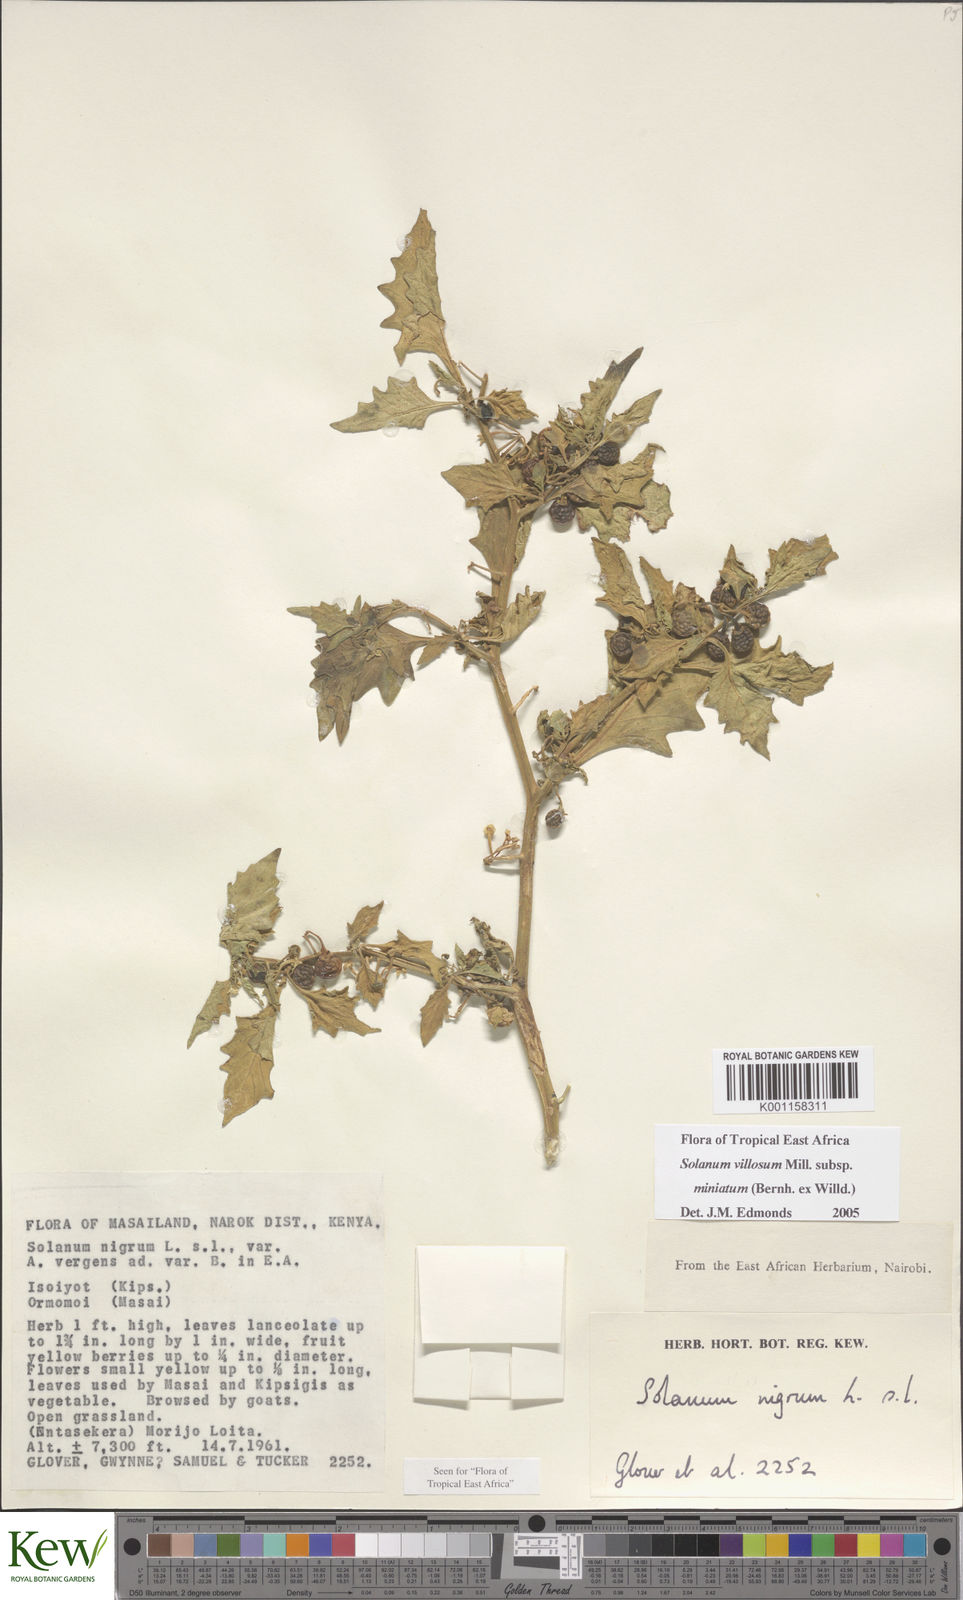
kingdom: Plantae
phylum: Tracheophyta
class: Magnoliopsida
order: Solanales
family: Solanaceae
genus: Solanum
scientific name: Solanum villosum
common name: Red nightshade
